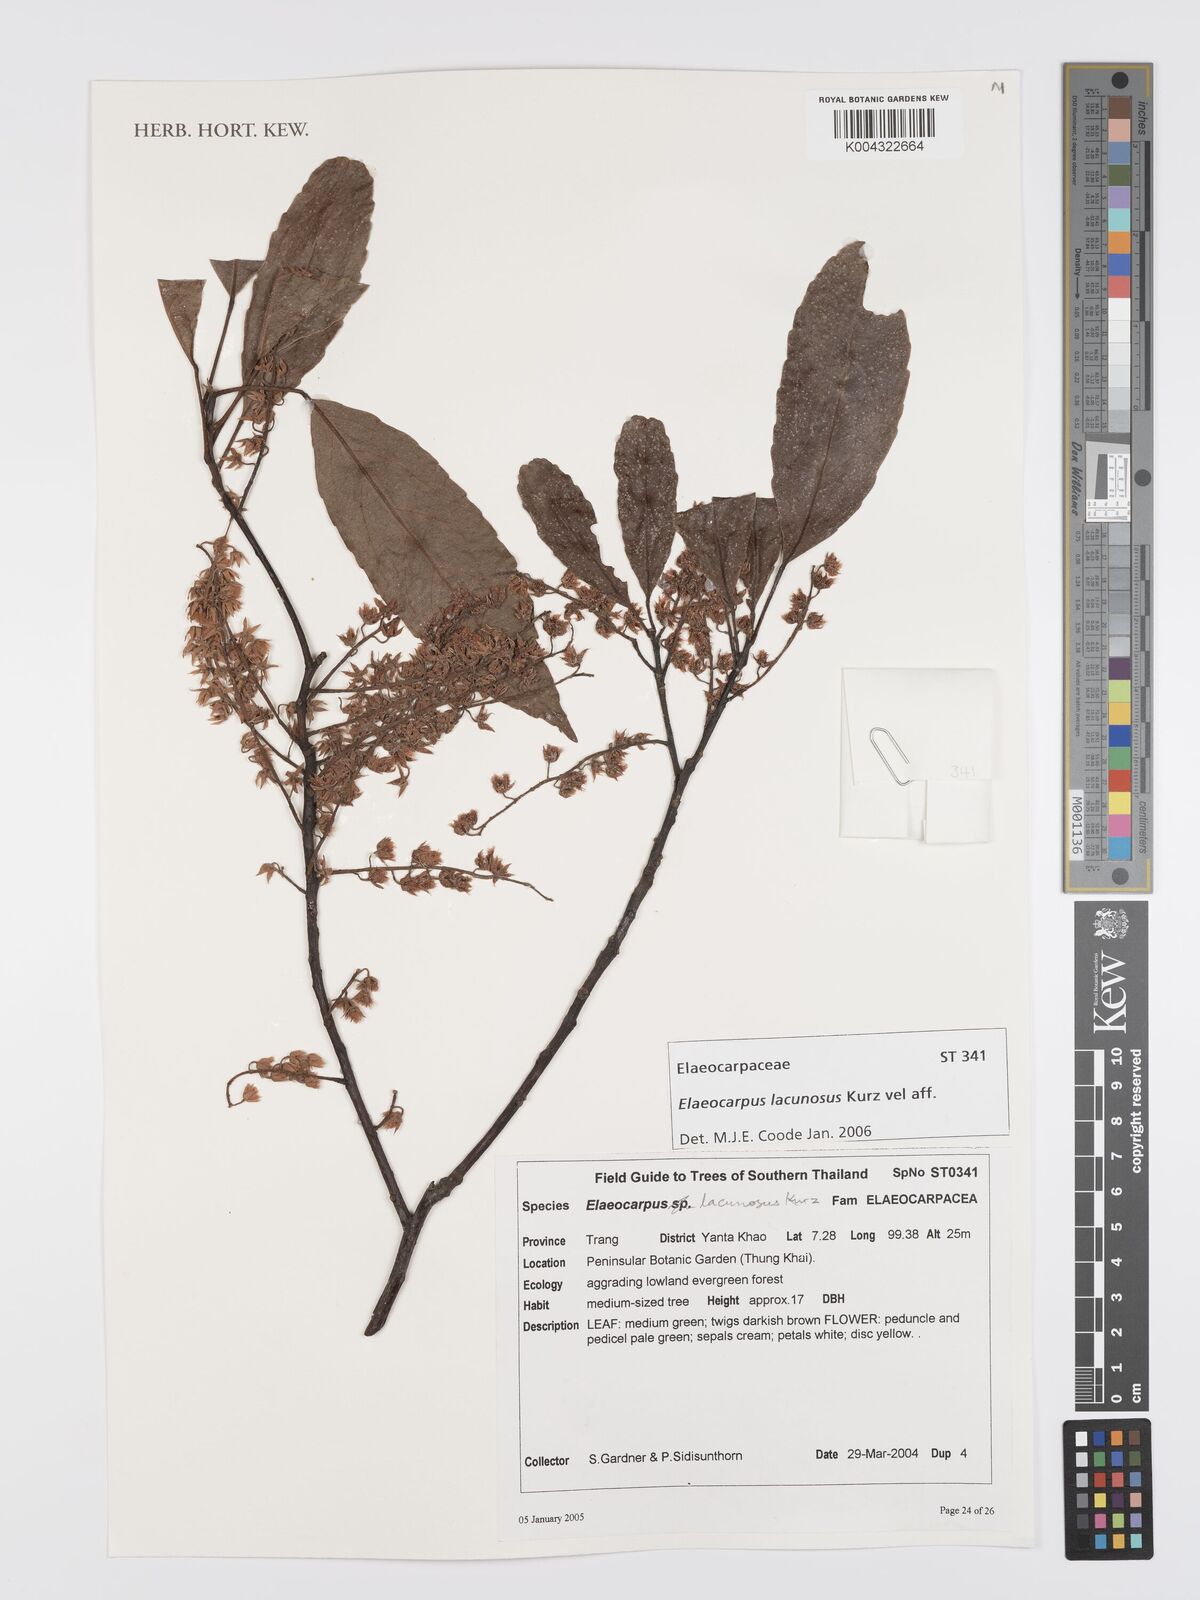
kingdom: Plantae
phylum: Tracheophyta
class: Magnoliopsida
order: Oxalidales
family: Elaeocarpaceae
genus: Elaeocarpus
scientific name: Elaeocarpus lanceifolius
